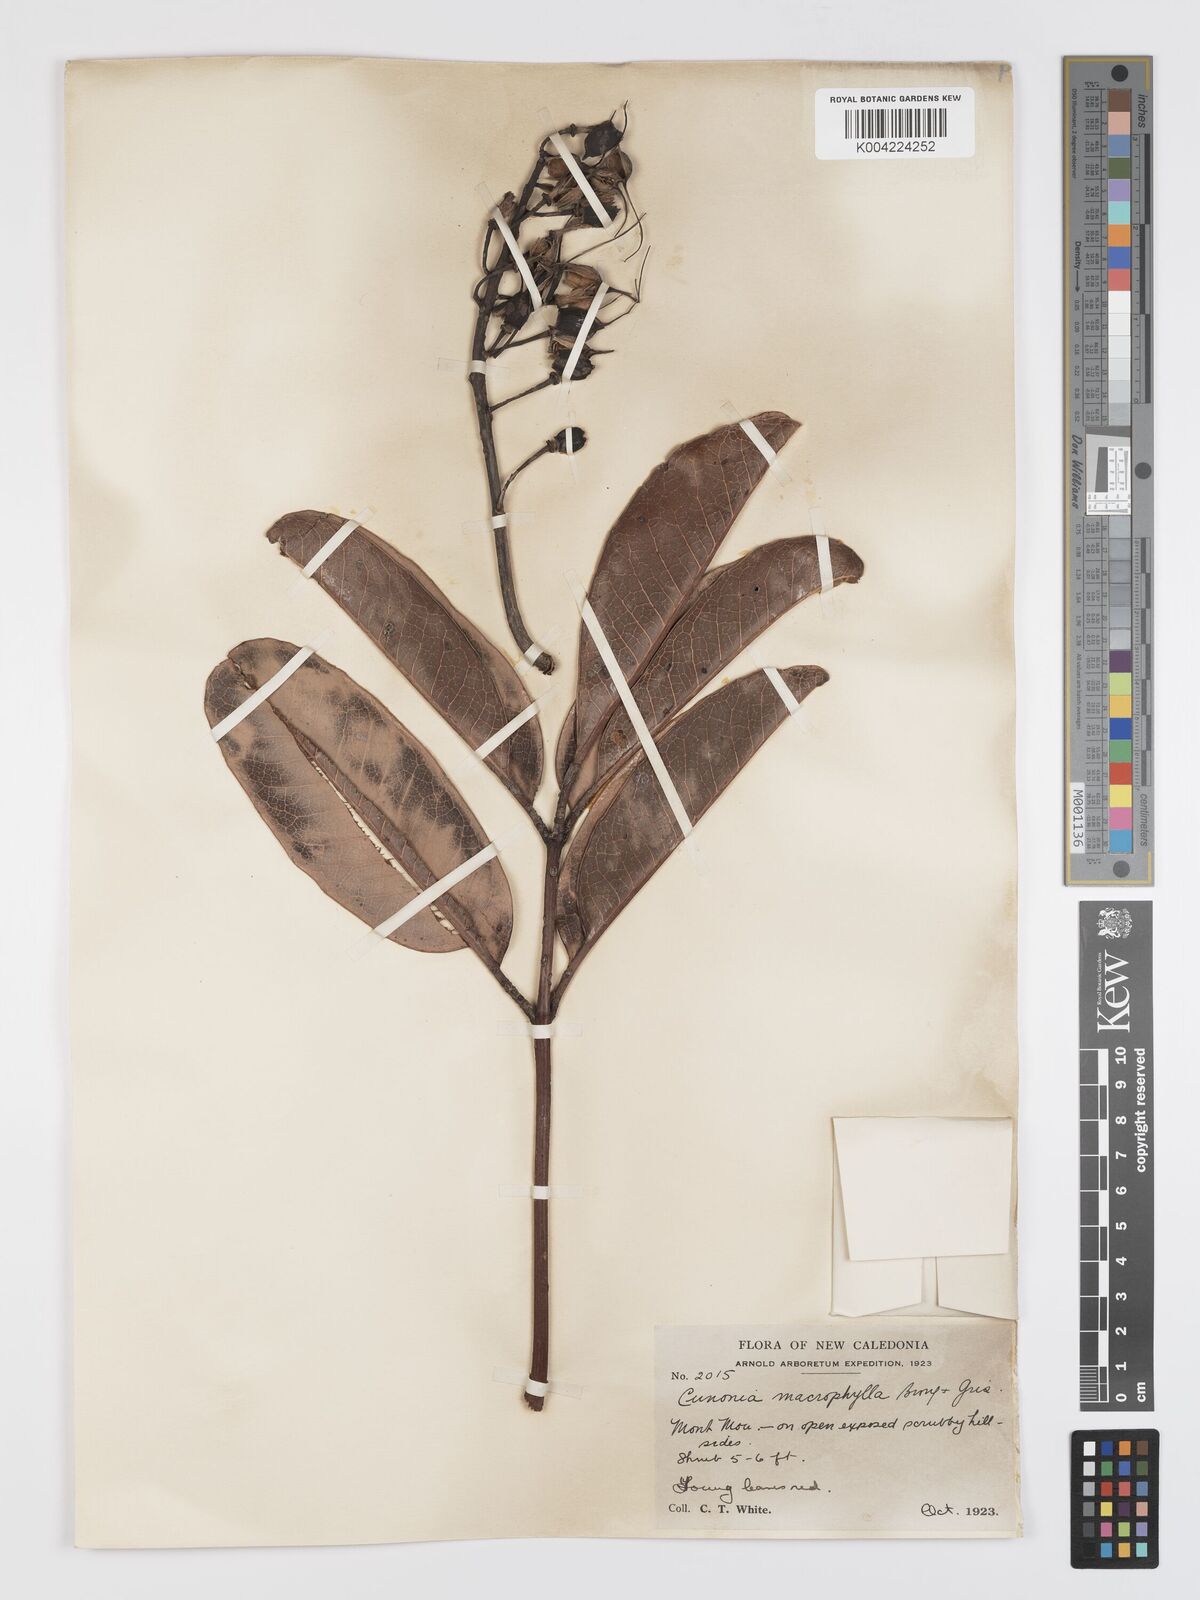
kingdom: Plantae
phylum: Tracheophyta
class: Magnoliopsida
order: Oxalidales
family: Cunoniaceae
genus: Cunonia
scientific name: Cunonia macrophylla
